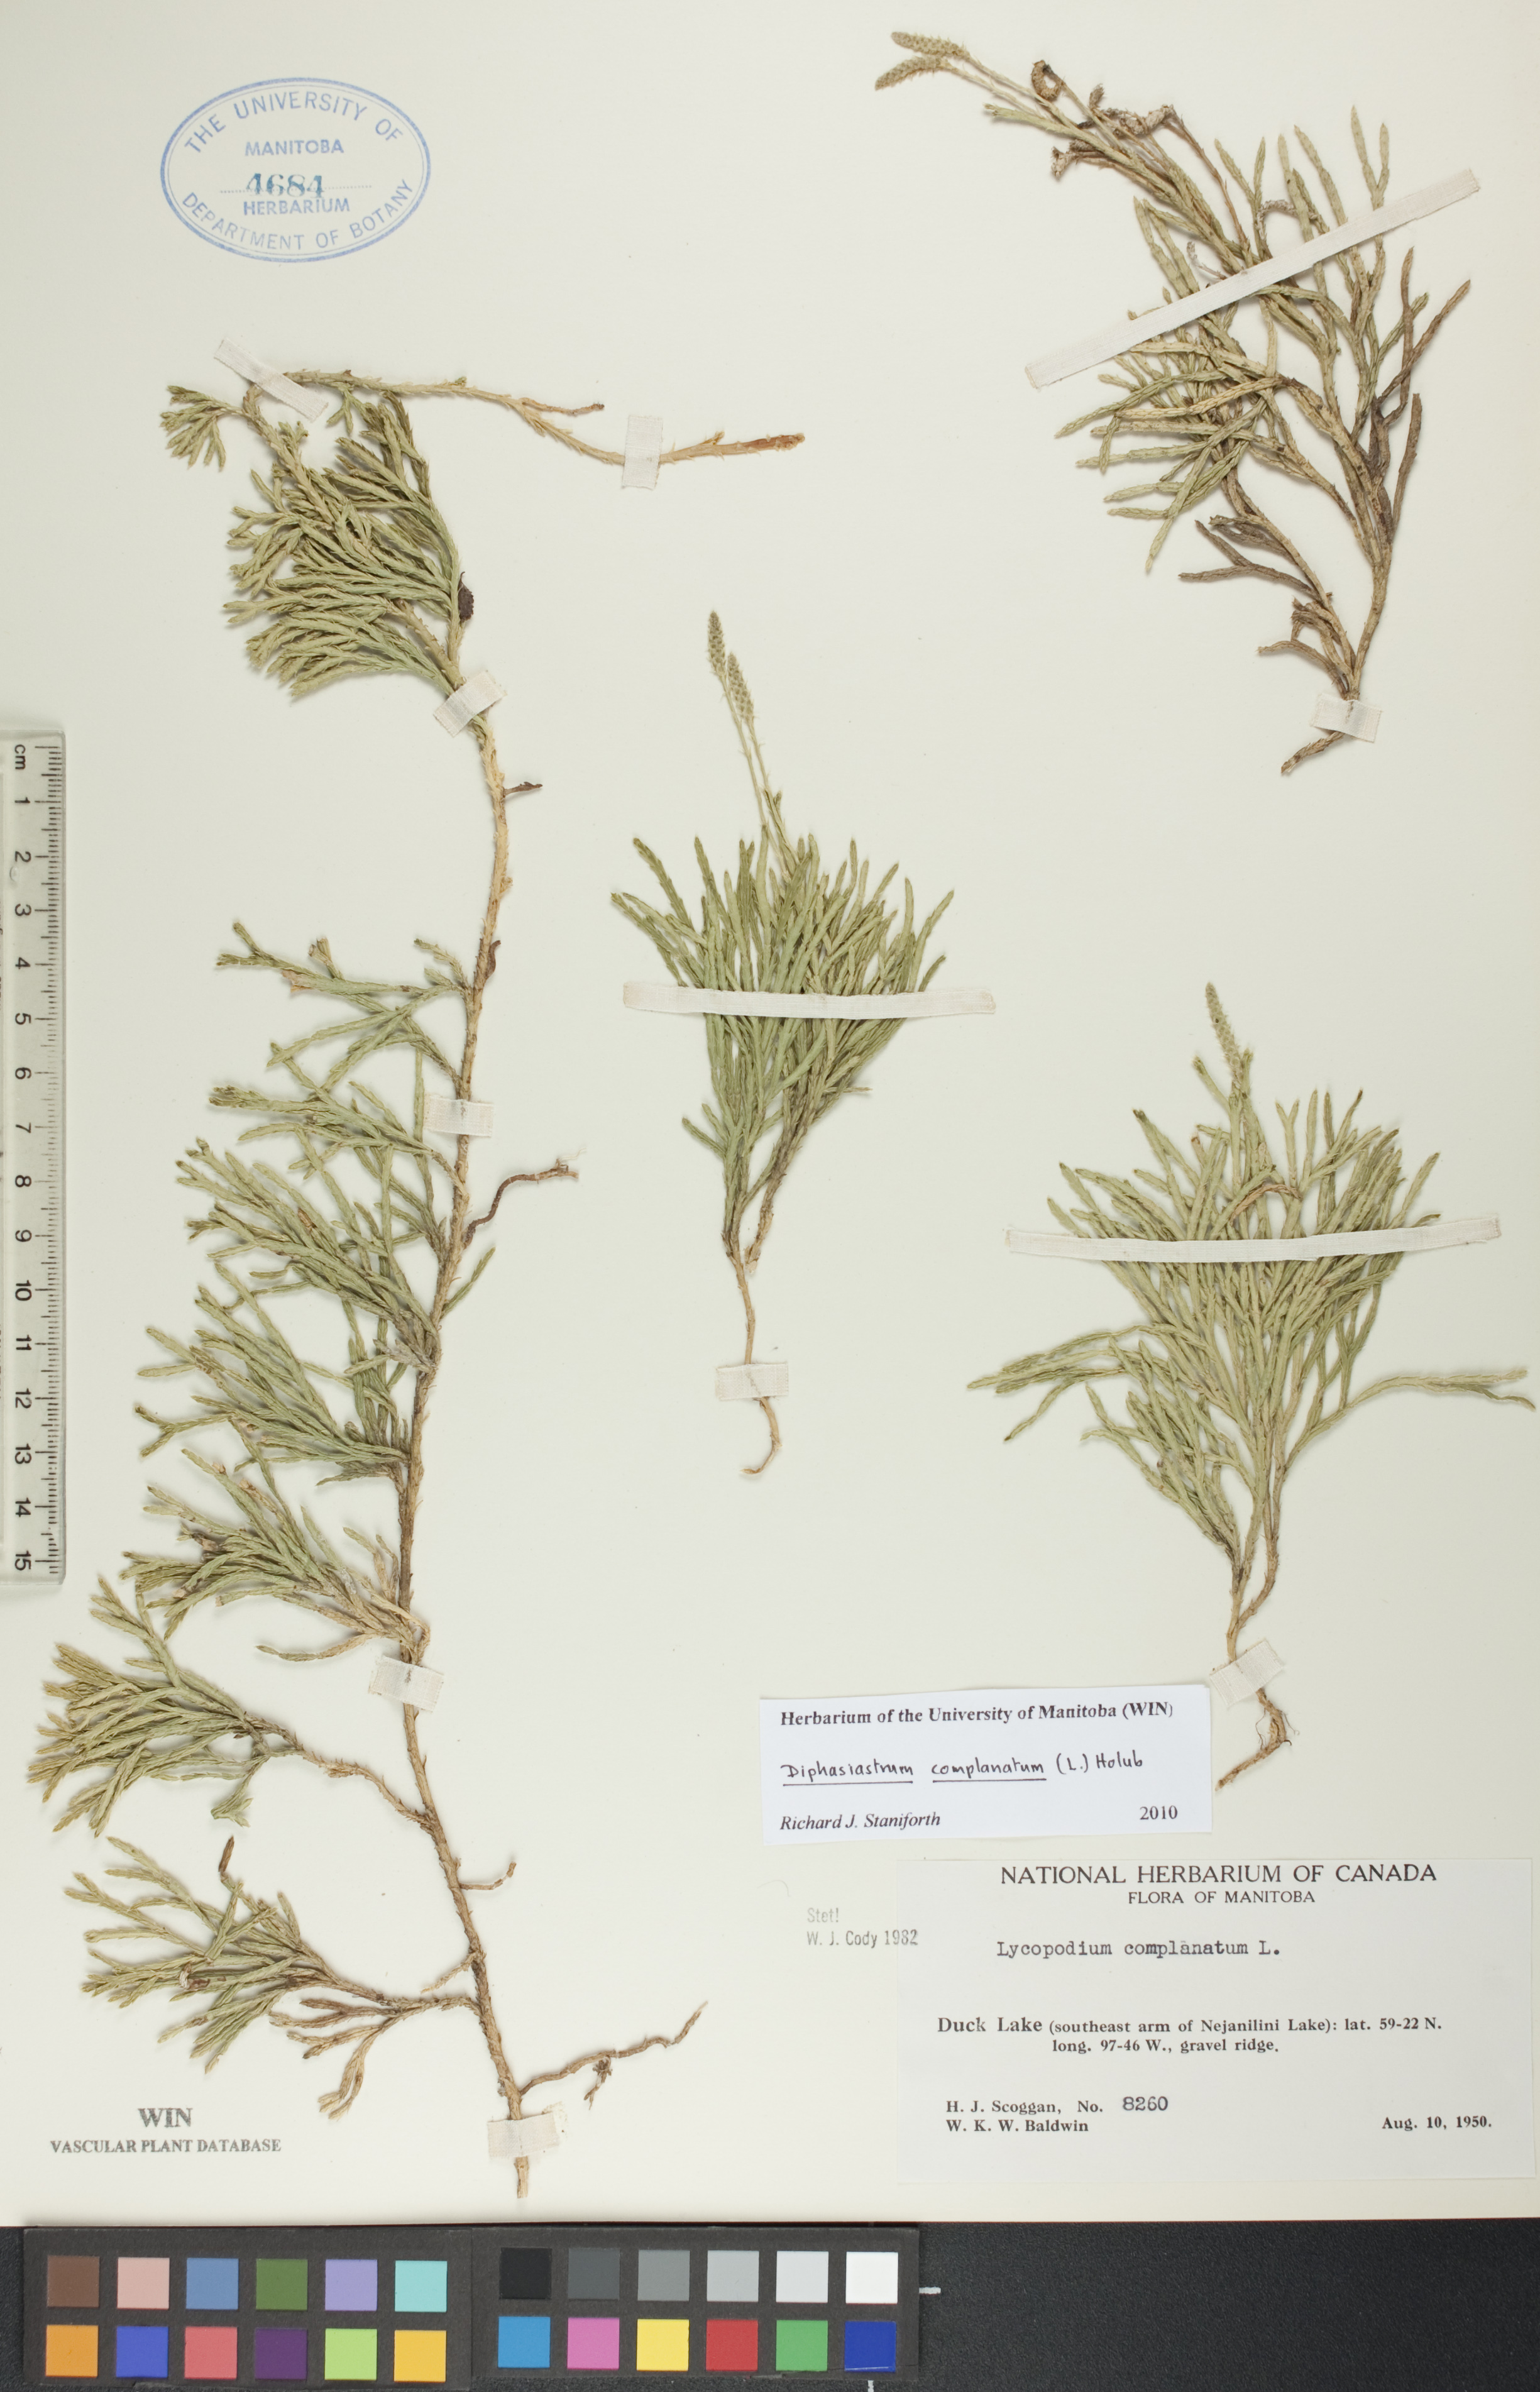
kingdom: Plantae
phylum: Tracheophyta
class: Lycopodiopsida
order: Lycopodiales
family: Lycopodiaceae
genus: Diphasiastrum
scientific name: Diphasiastrum complanatum
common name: Northern running-pine
